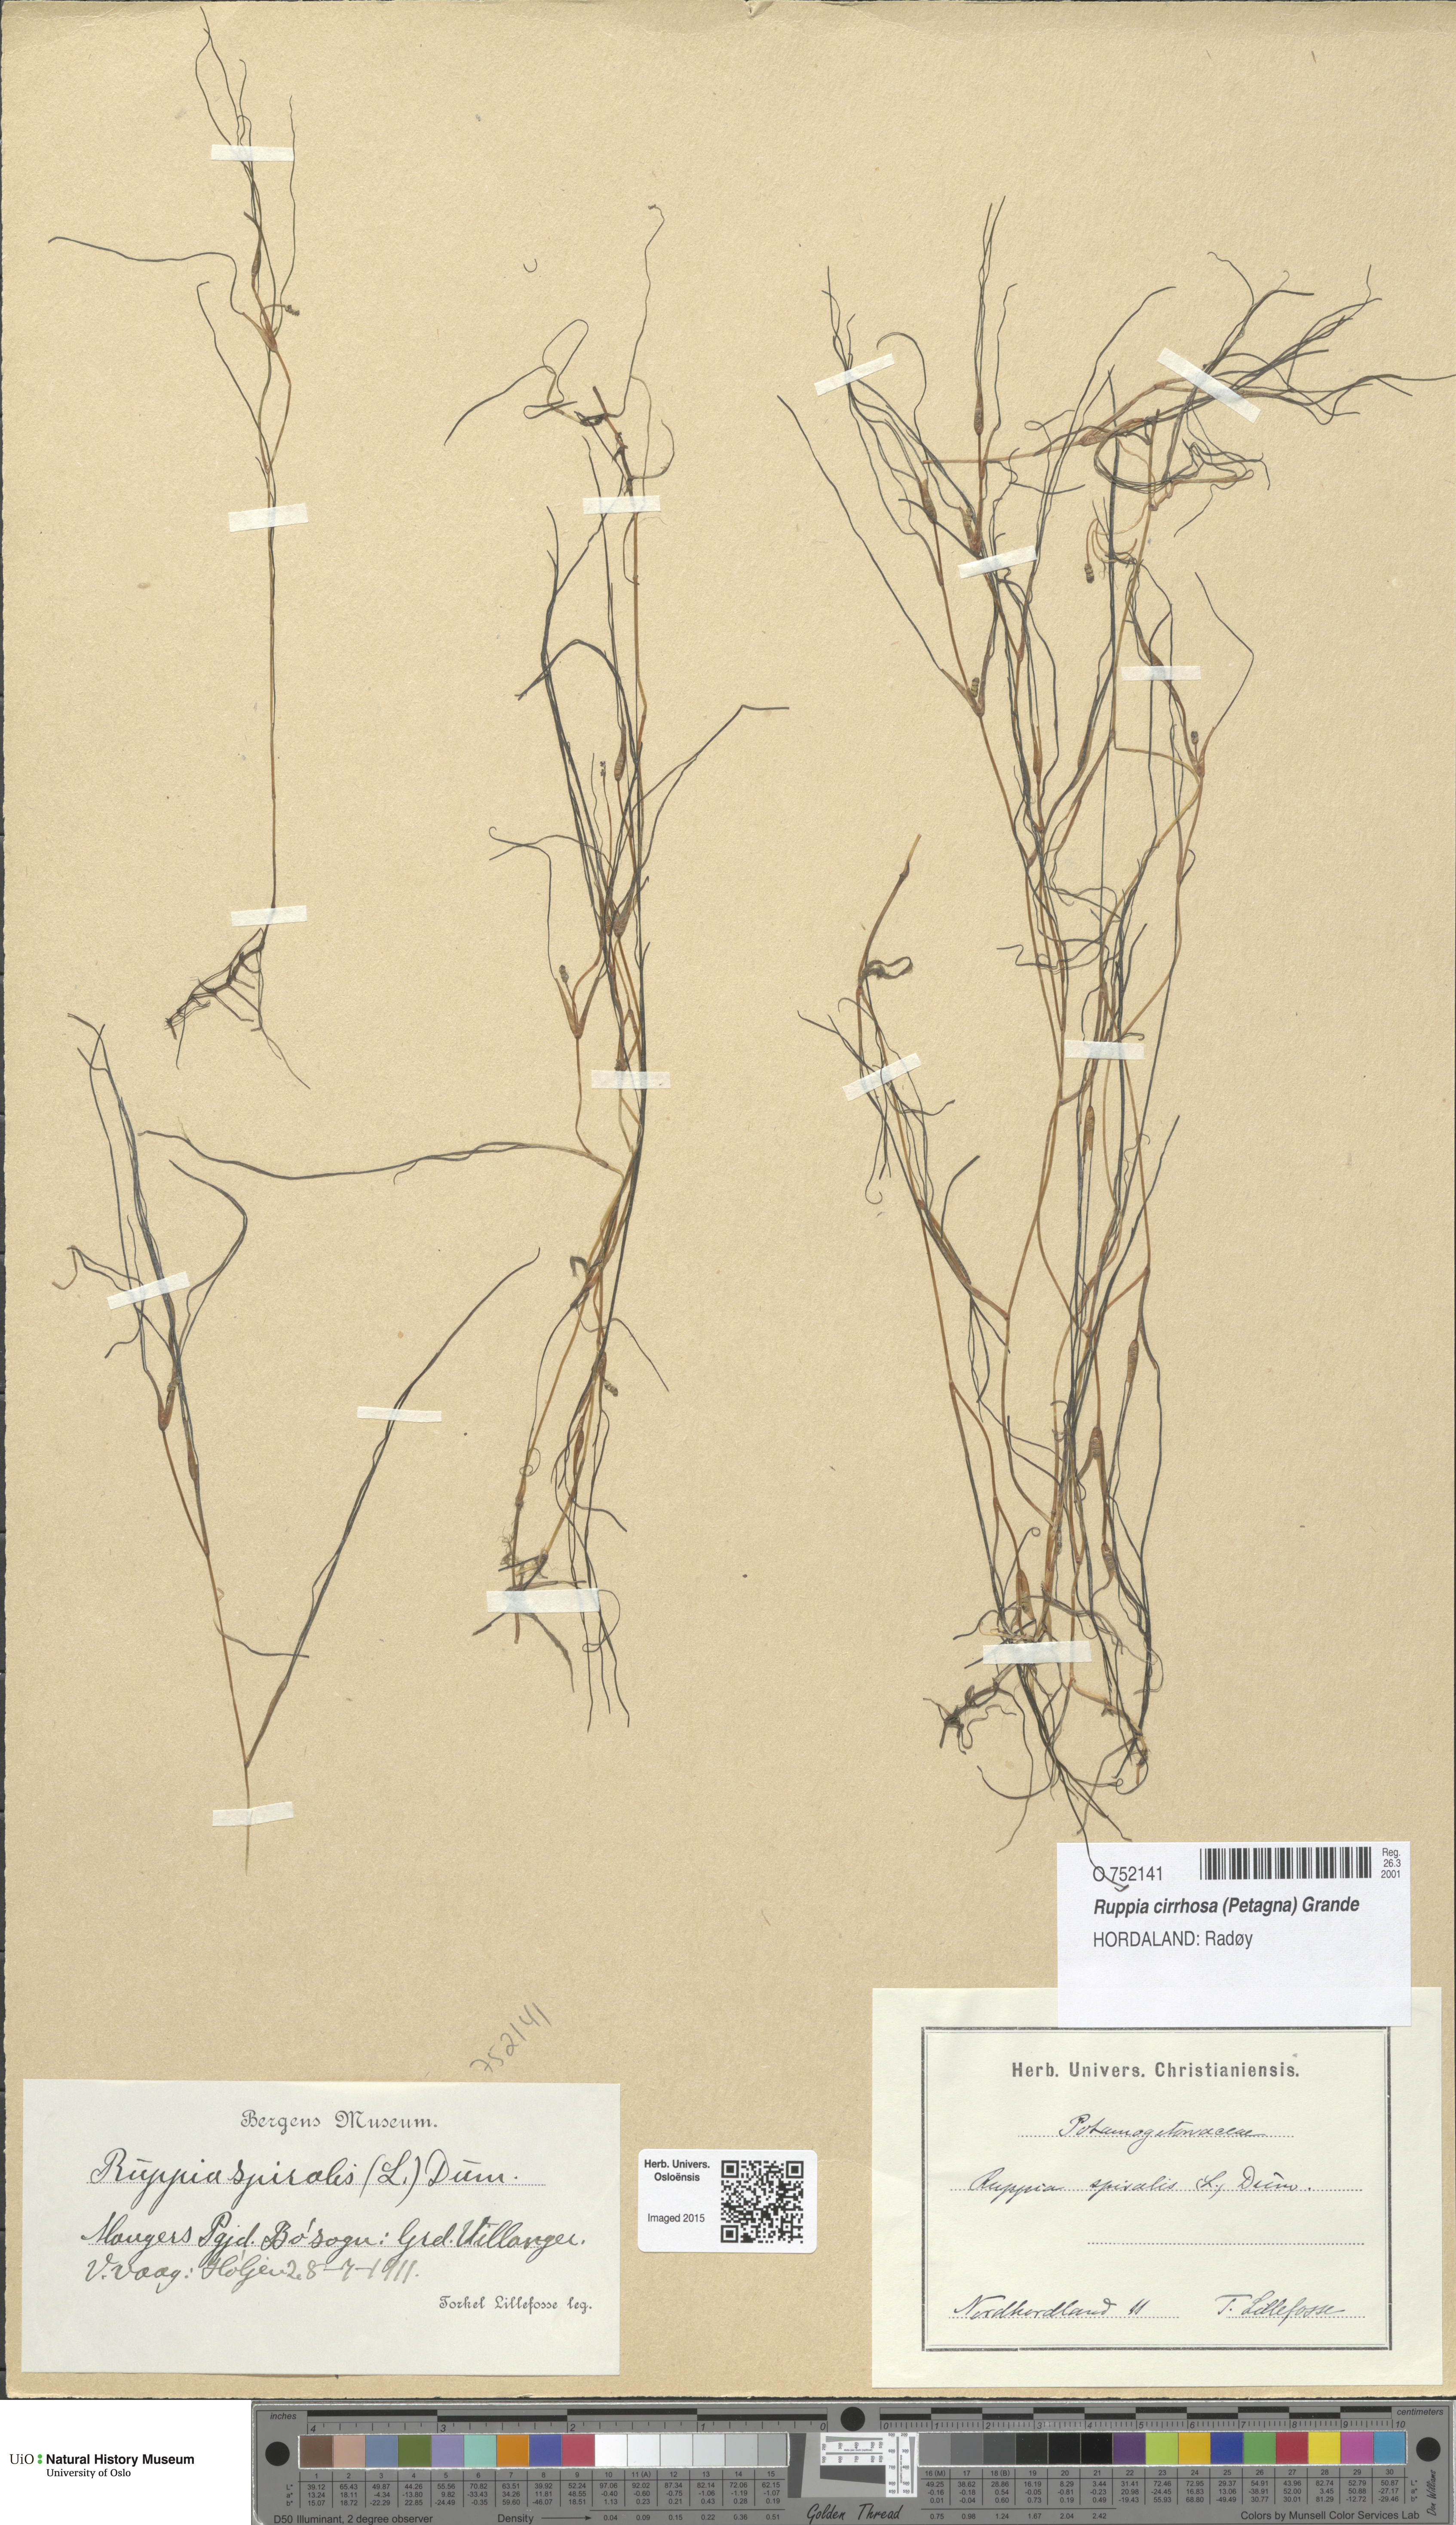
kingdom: Plantae
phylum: Tracheophyta
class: Liliopsida
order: Alismatales
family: Ruppiaceae
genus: Ruppia
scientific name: Ruppia cirrhosa
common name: Spiral tasselweed
